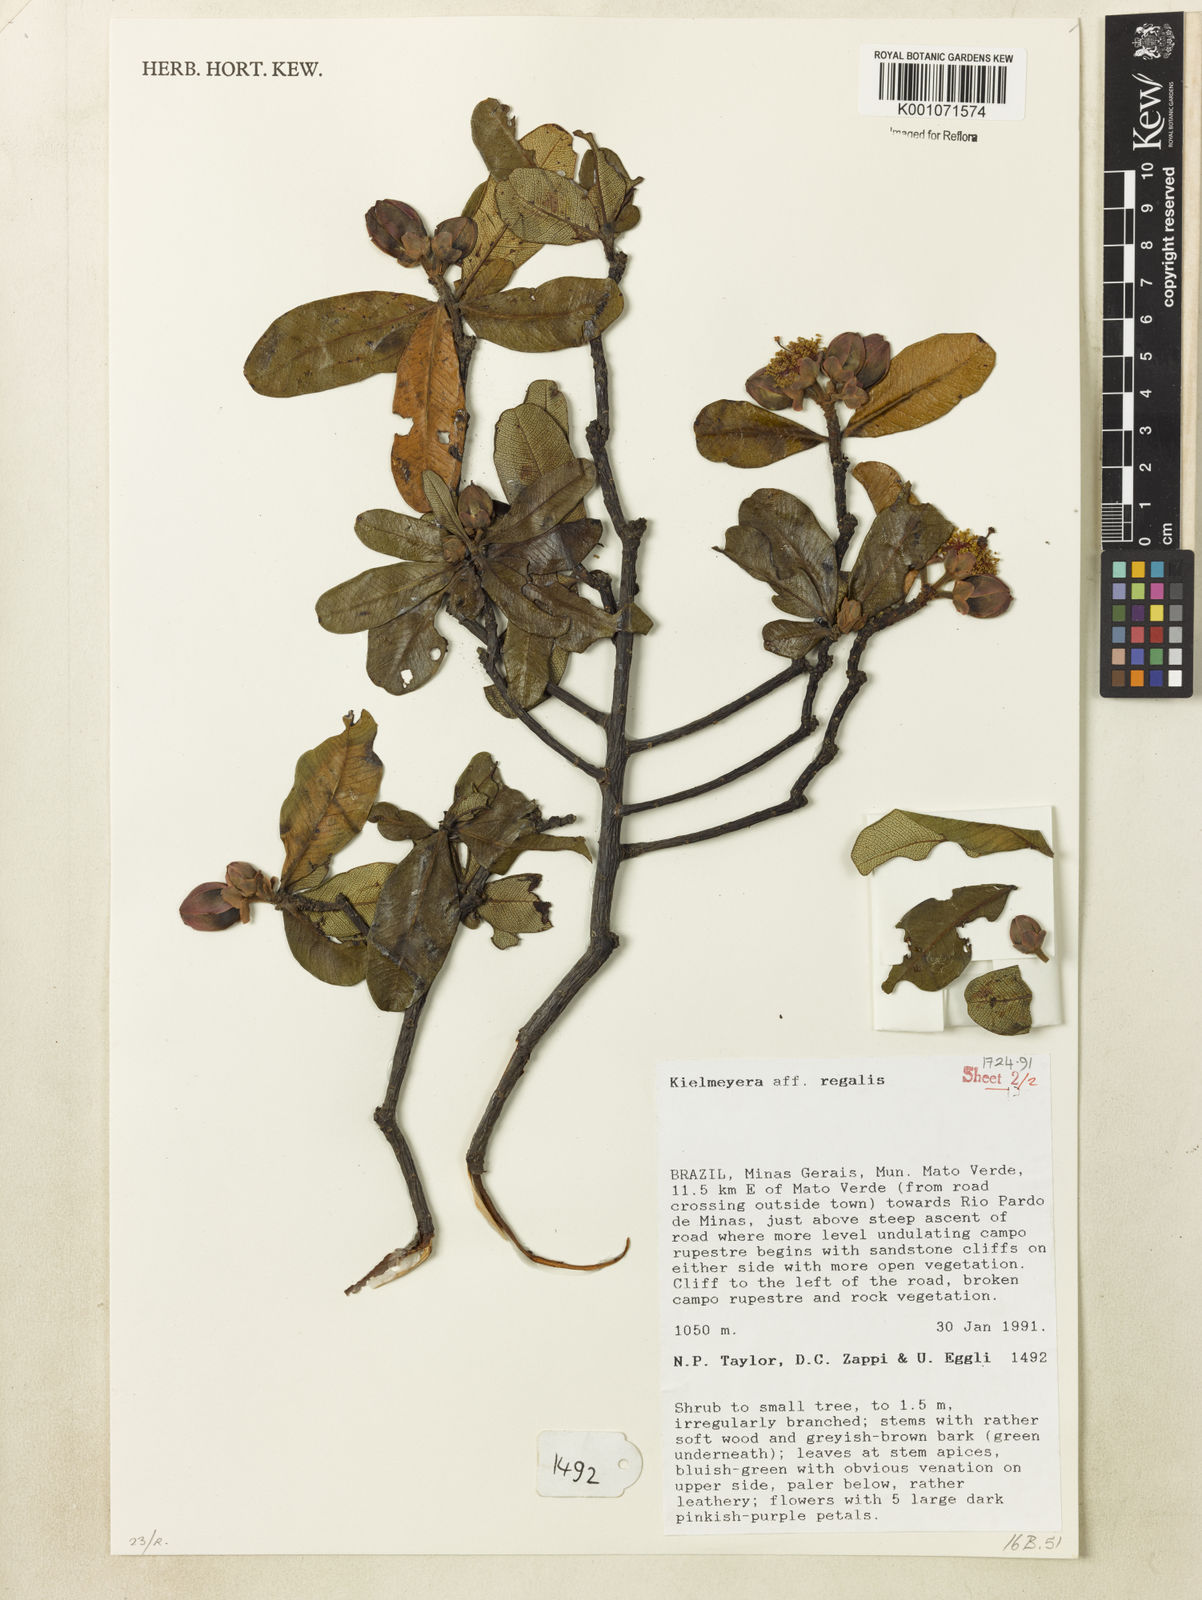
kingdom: Plantae
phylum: Tracheophyta
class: Magnoliopsida
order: Malpighiales
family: Calophyllaceae
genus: Kielmeyera
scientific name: Kielmeyera regalis
